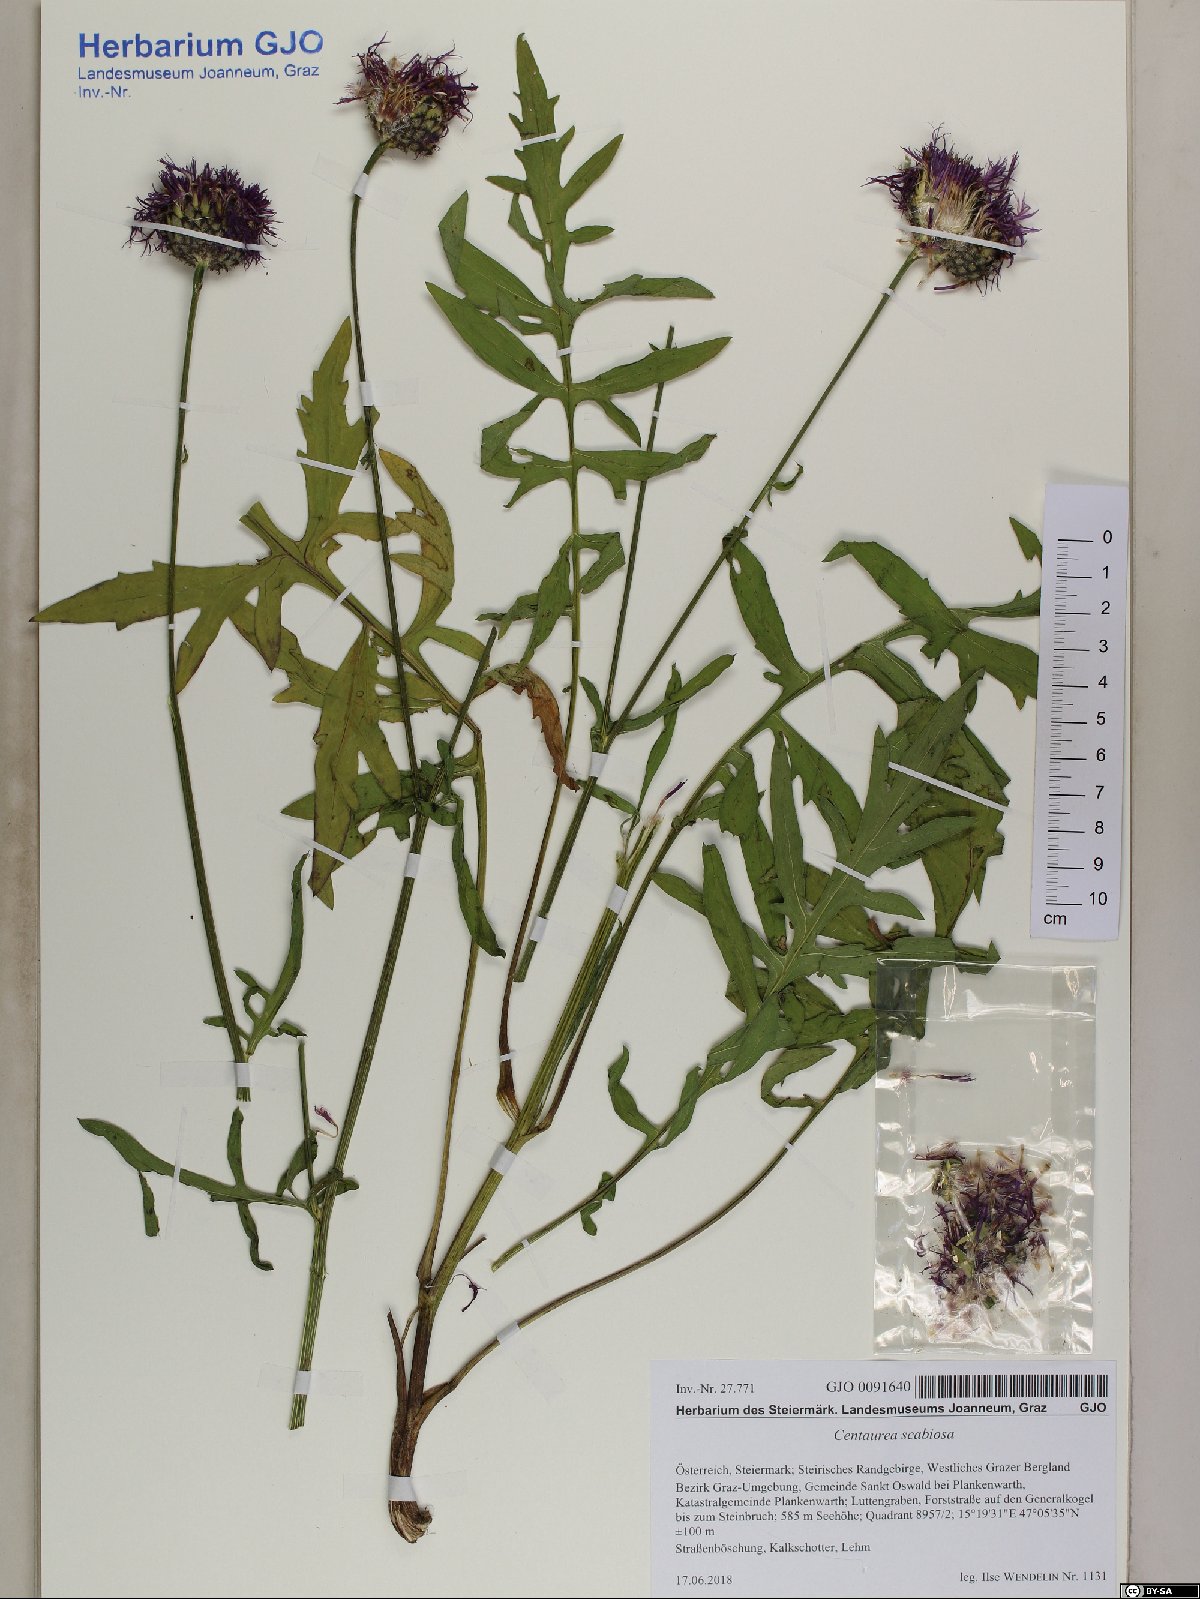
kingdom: Plantae
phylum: Tracheophyta
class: Magnoliopsida
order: Asterales
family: Asteraceae
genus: Centaurea
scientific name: Centaurea scabiosa
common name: Greater knapweed
